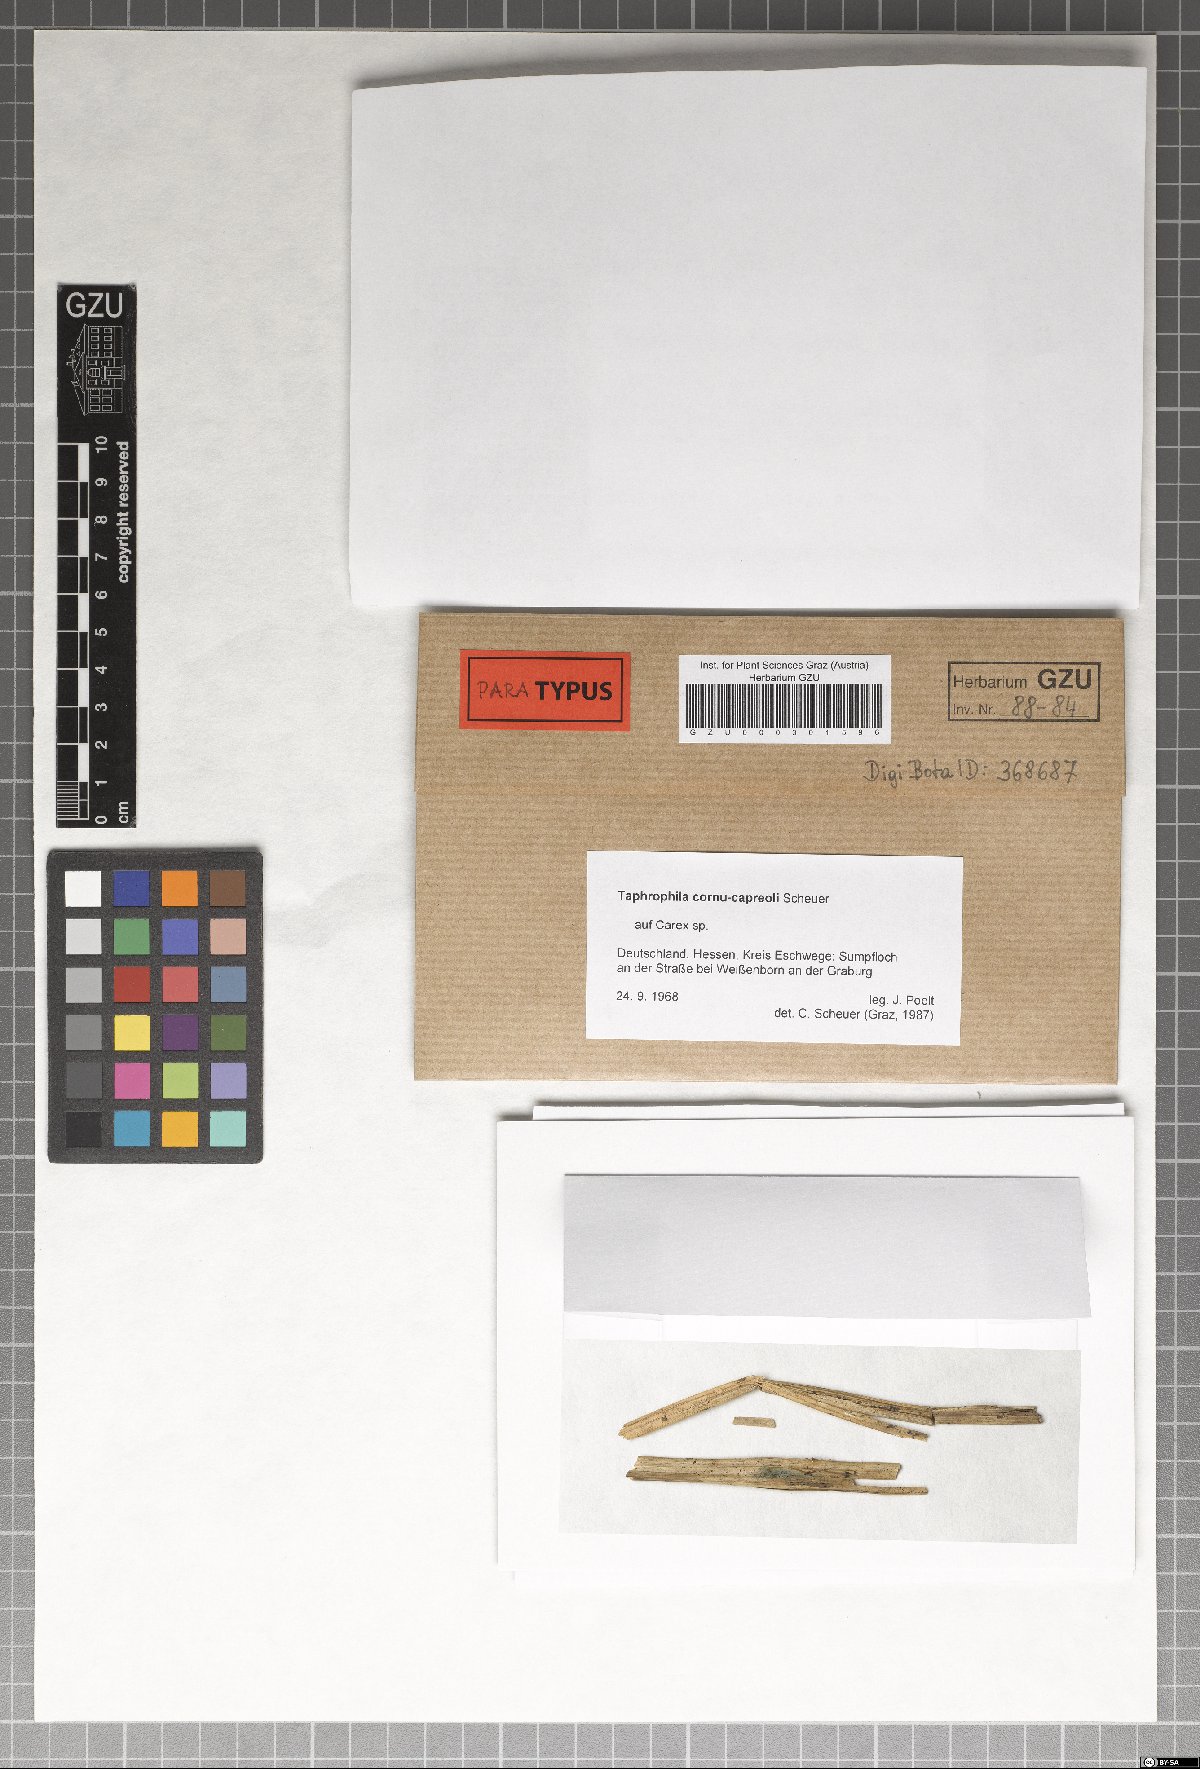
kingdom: Fungi
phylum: Ascomycota
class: Dothideomycetes
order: Tubeufiales
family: Tubeufiaceae
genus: Taphrophila
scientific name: Taphrophila cornu-capreoli
